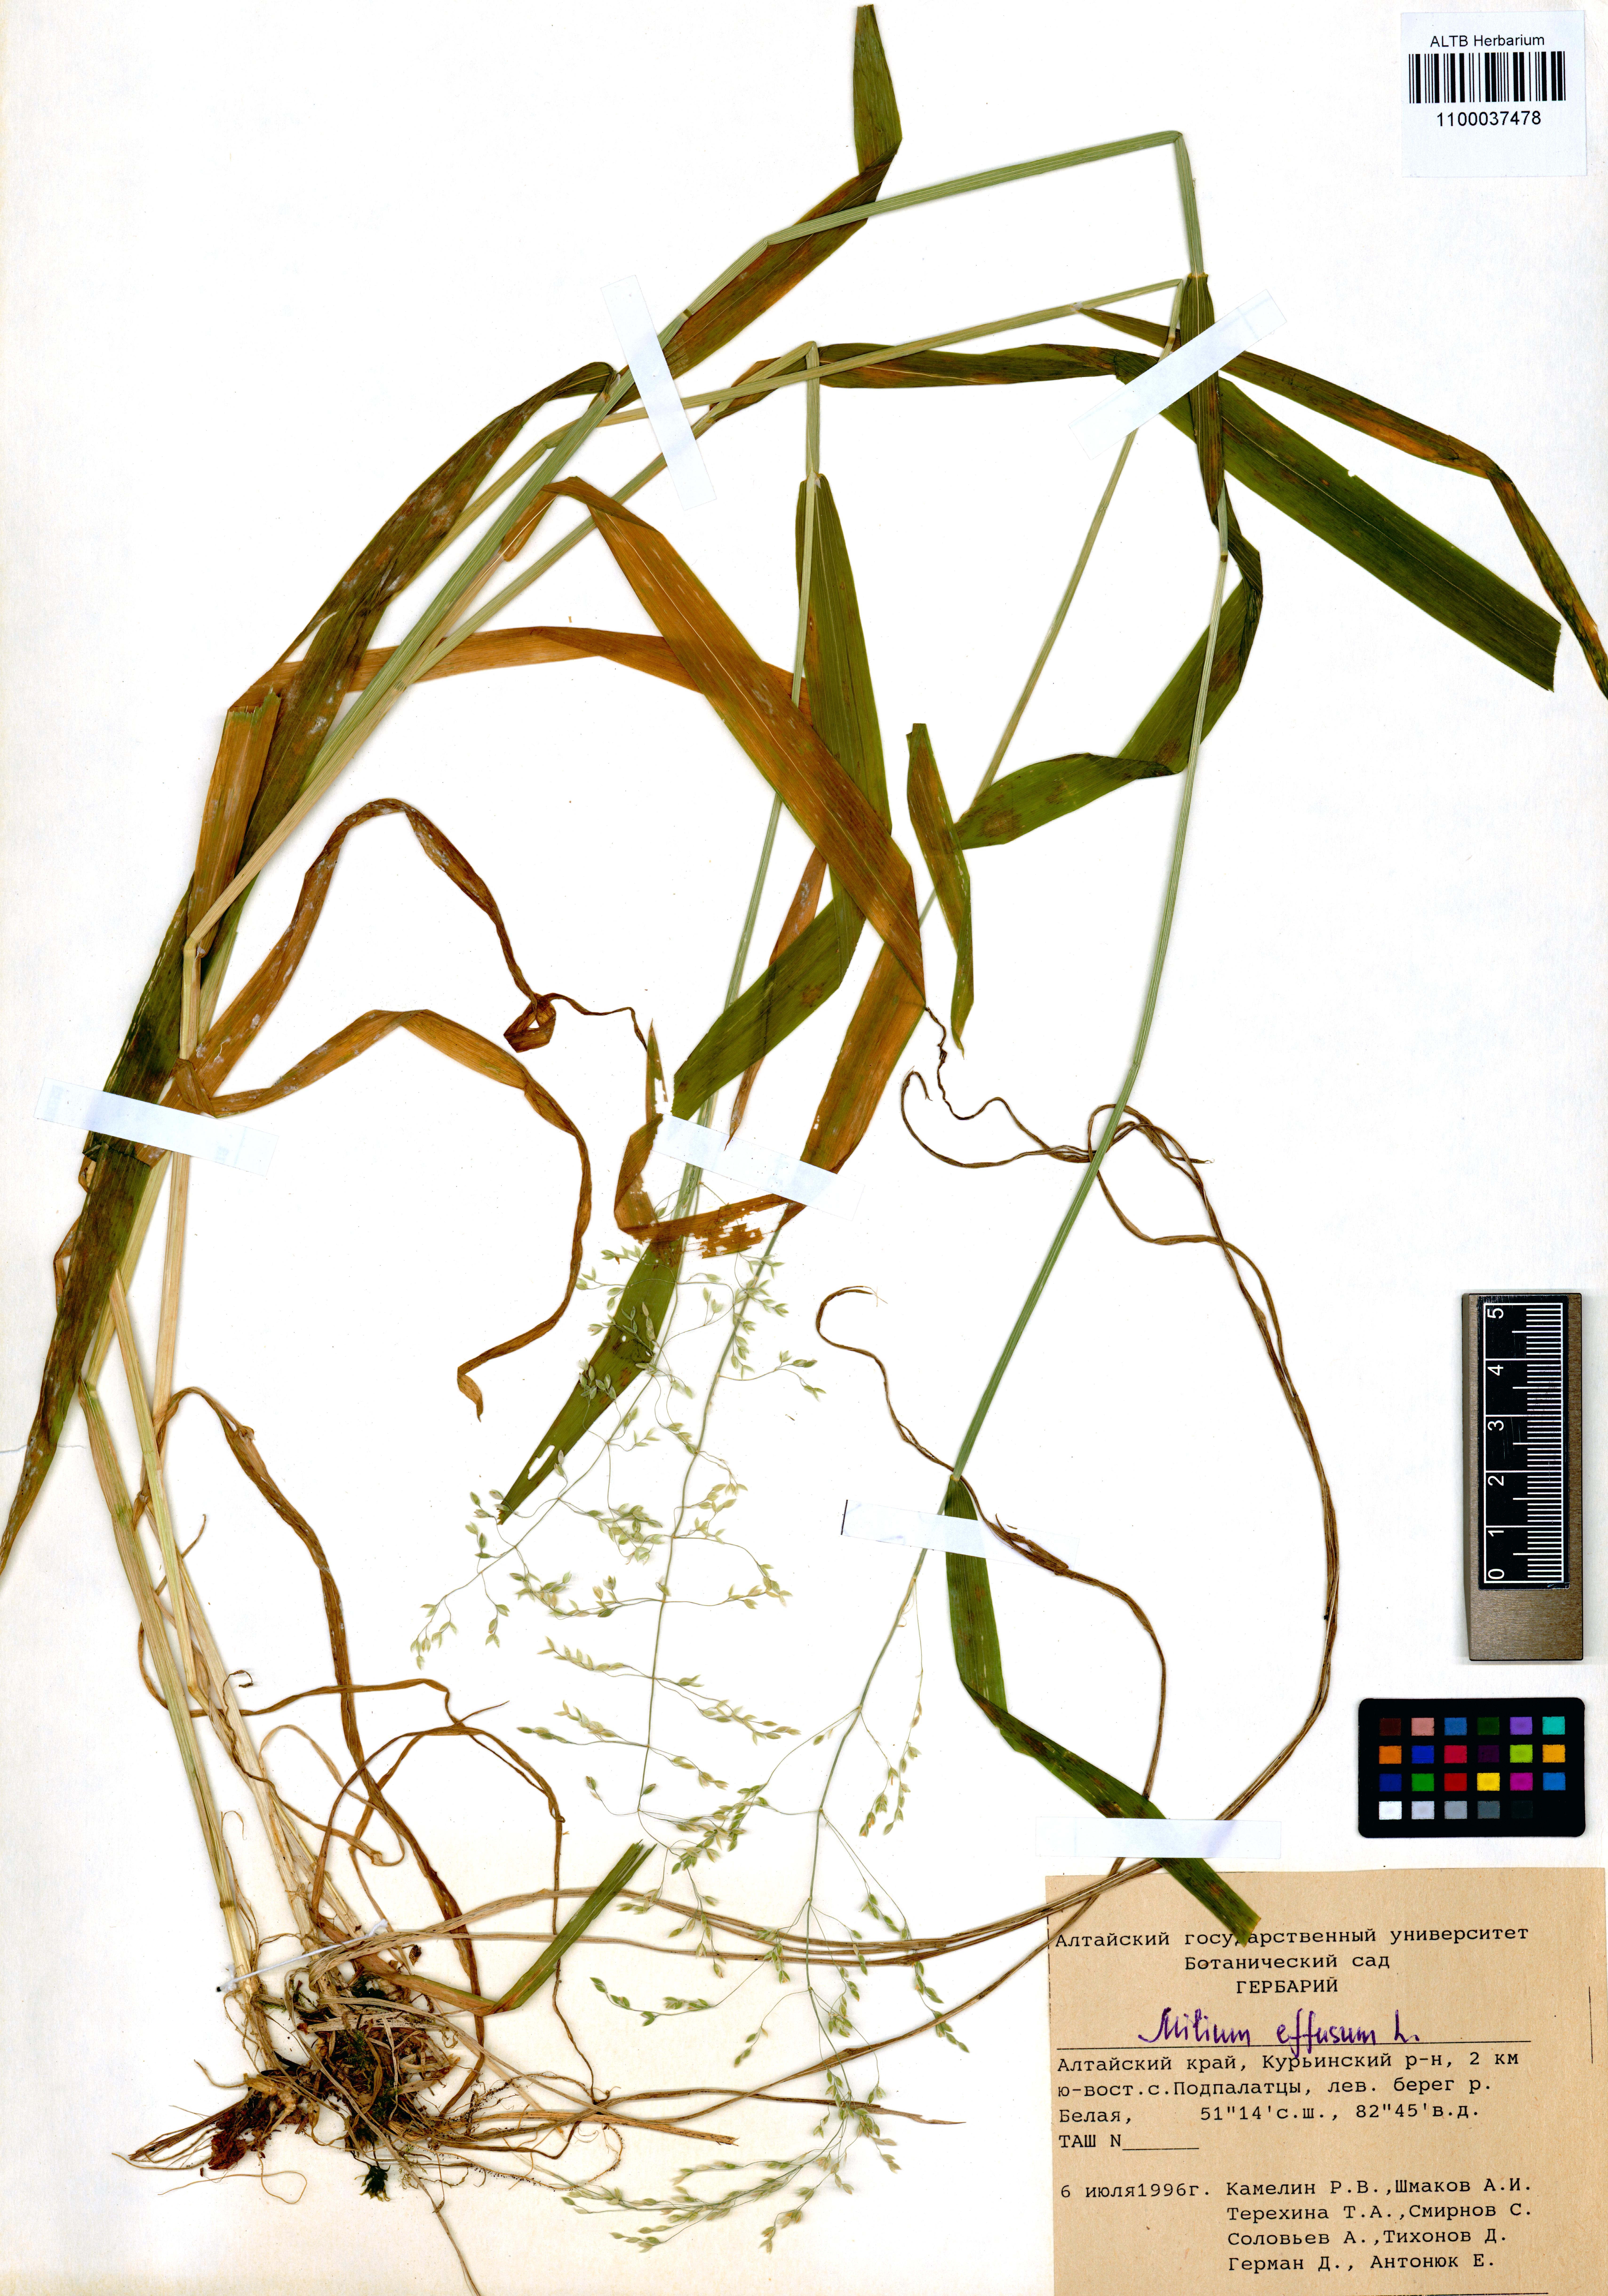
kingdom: Plantae
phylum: Tracheophyta
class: Liliopsida
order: Poales
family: Poaceae
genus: Milium
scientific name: Milium effusum
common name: Wood millet
